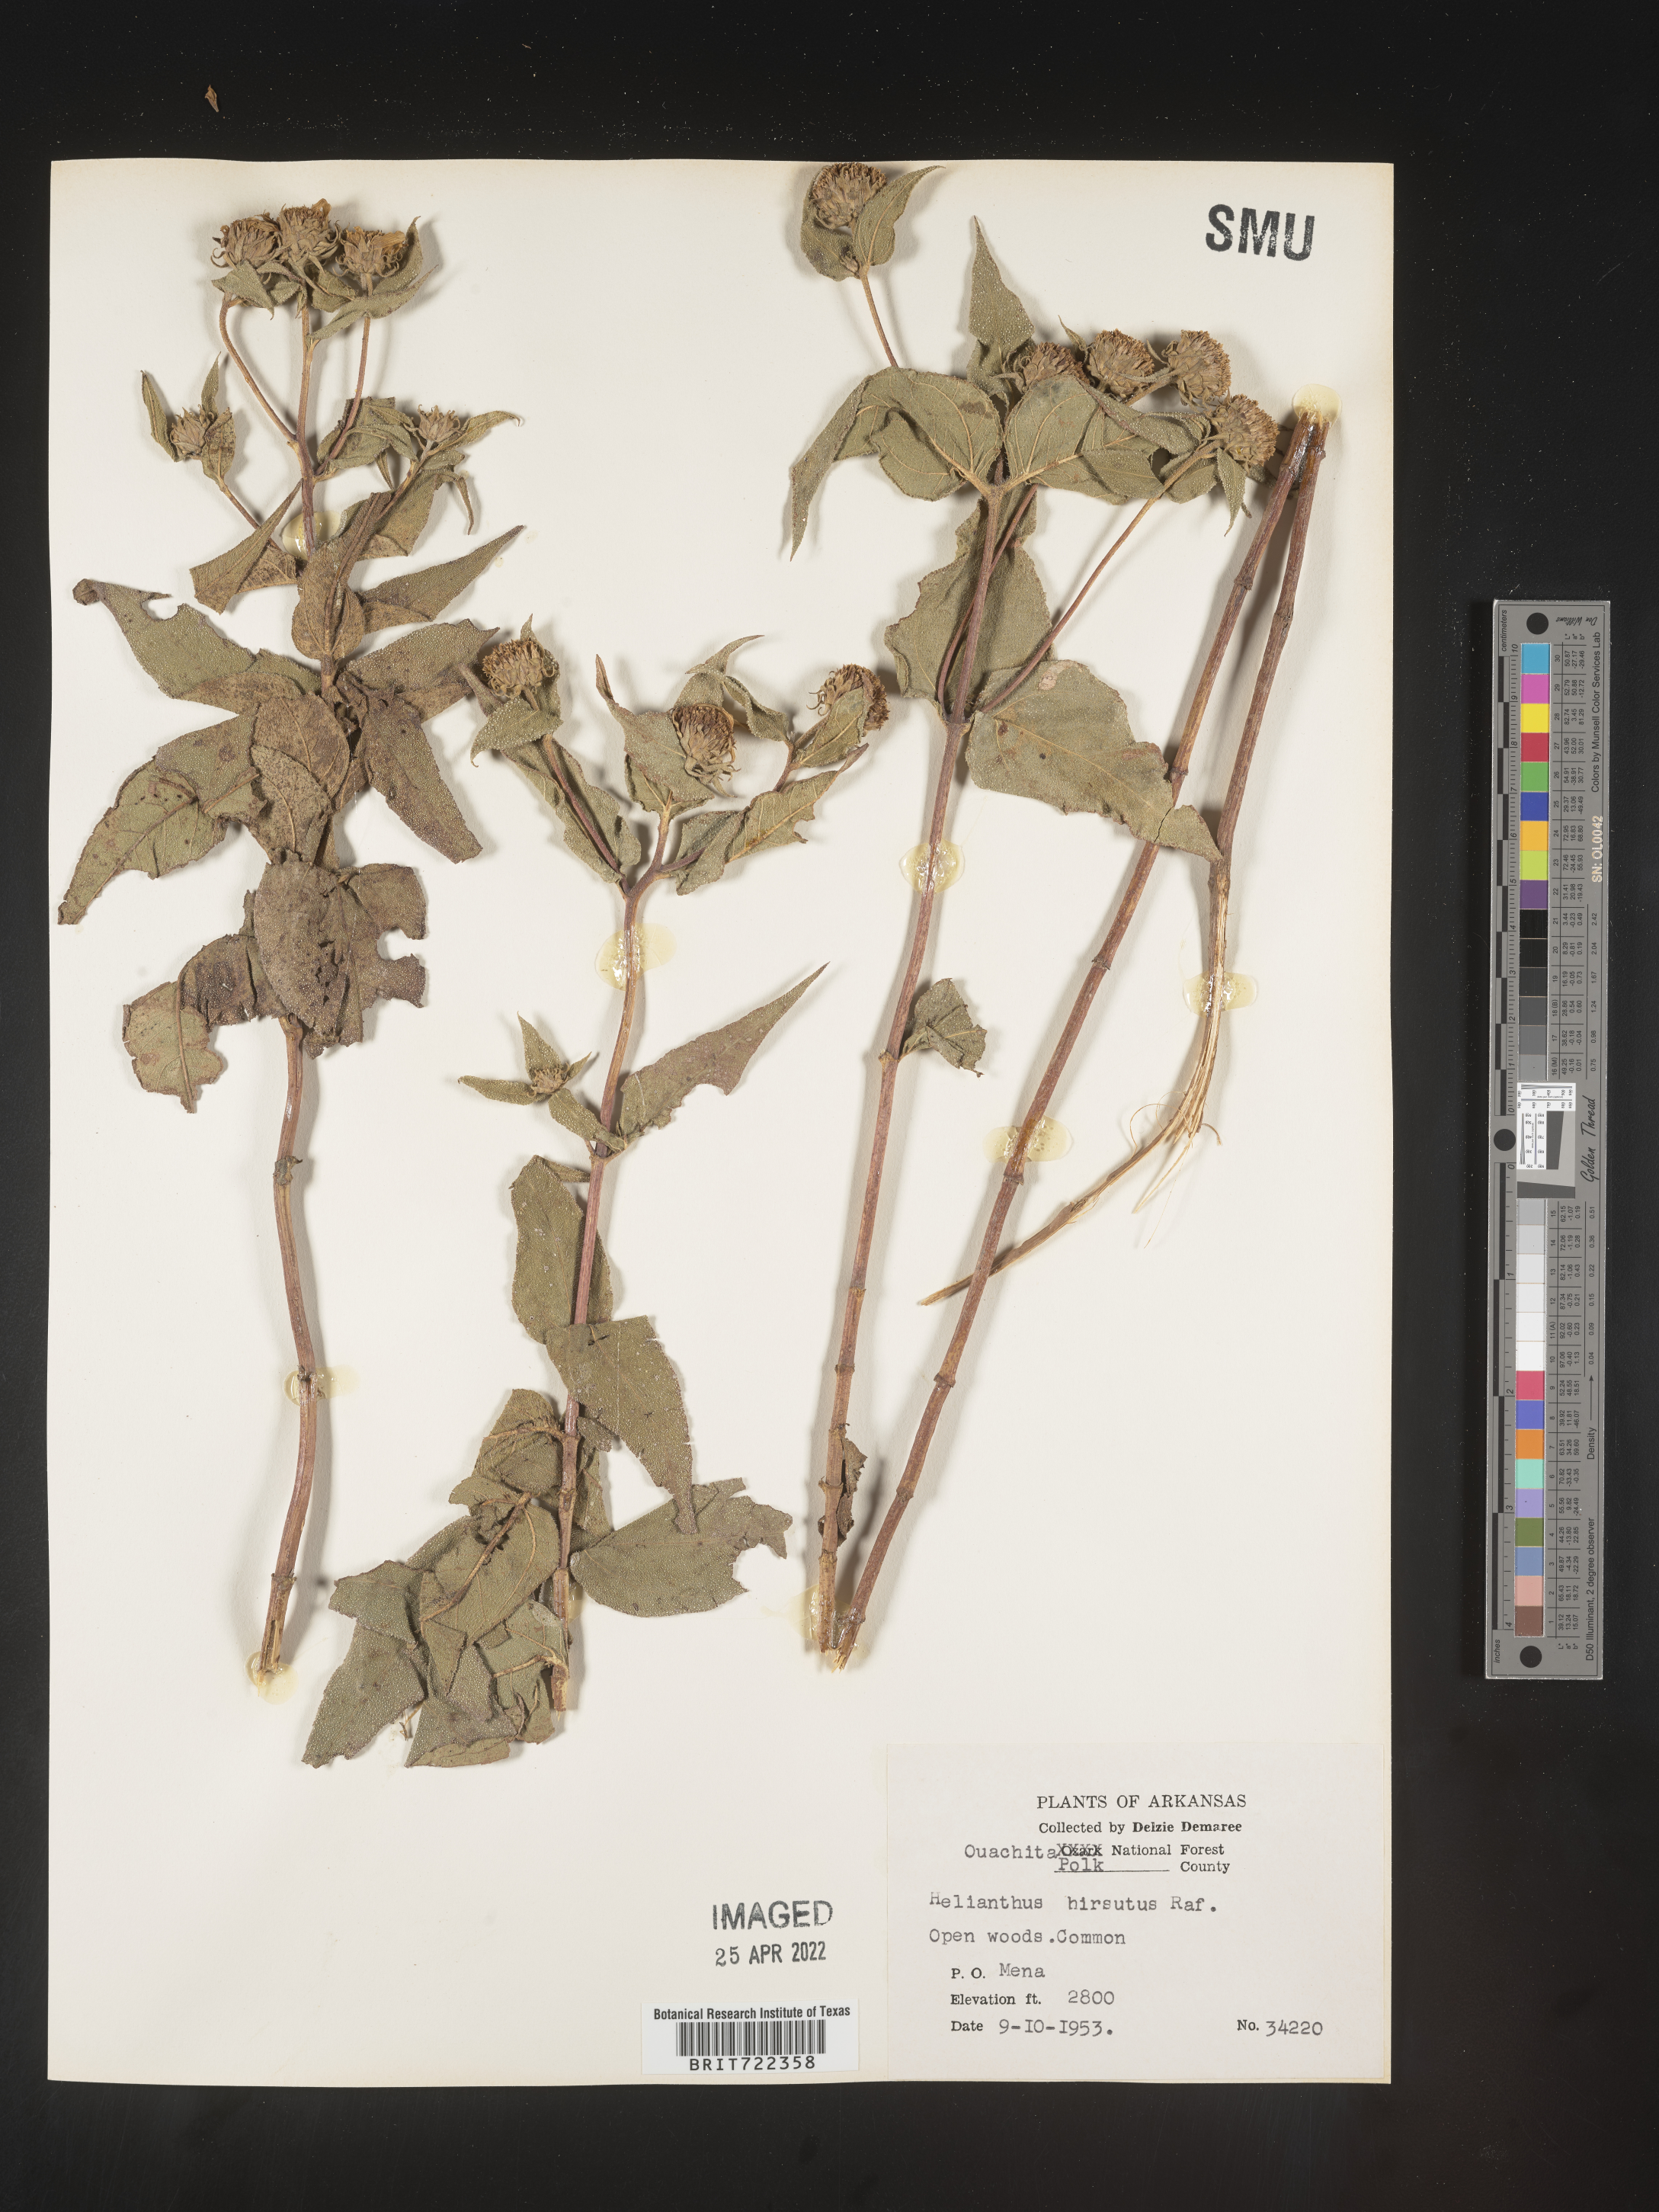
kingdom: Plantae
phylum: Tracheophyta
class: Magnoliopsida
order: Asterales
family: Asteraceae
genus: Helianthus
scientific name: Helianthus hirsutus
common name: Hairy sunflower
